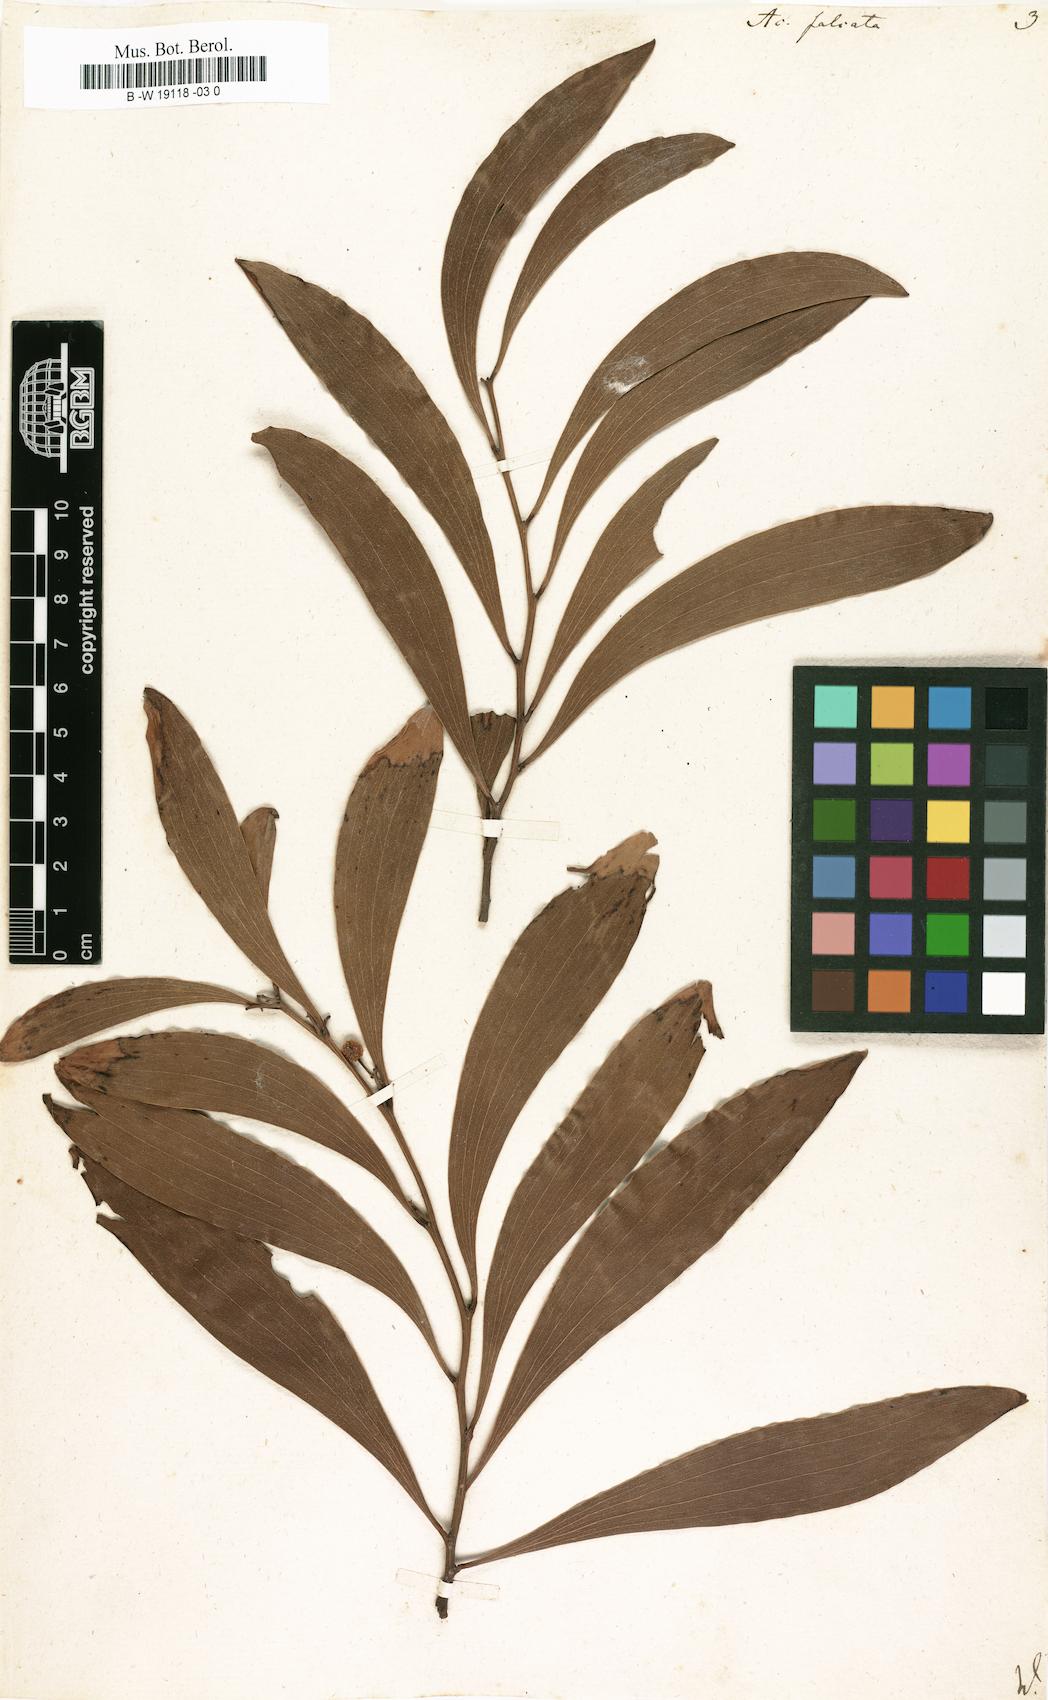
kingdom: Plantae
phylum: Tracheophyta
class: Magnoliopsida
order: Fabales
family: Fabaceae
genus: Acacia
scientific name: Acacia falcata
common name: Burra acacia
